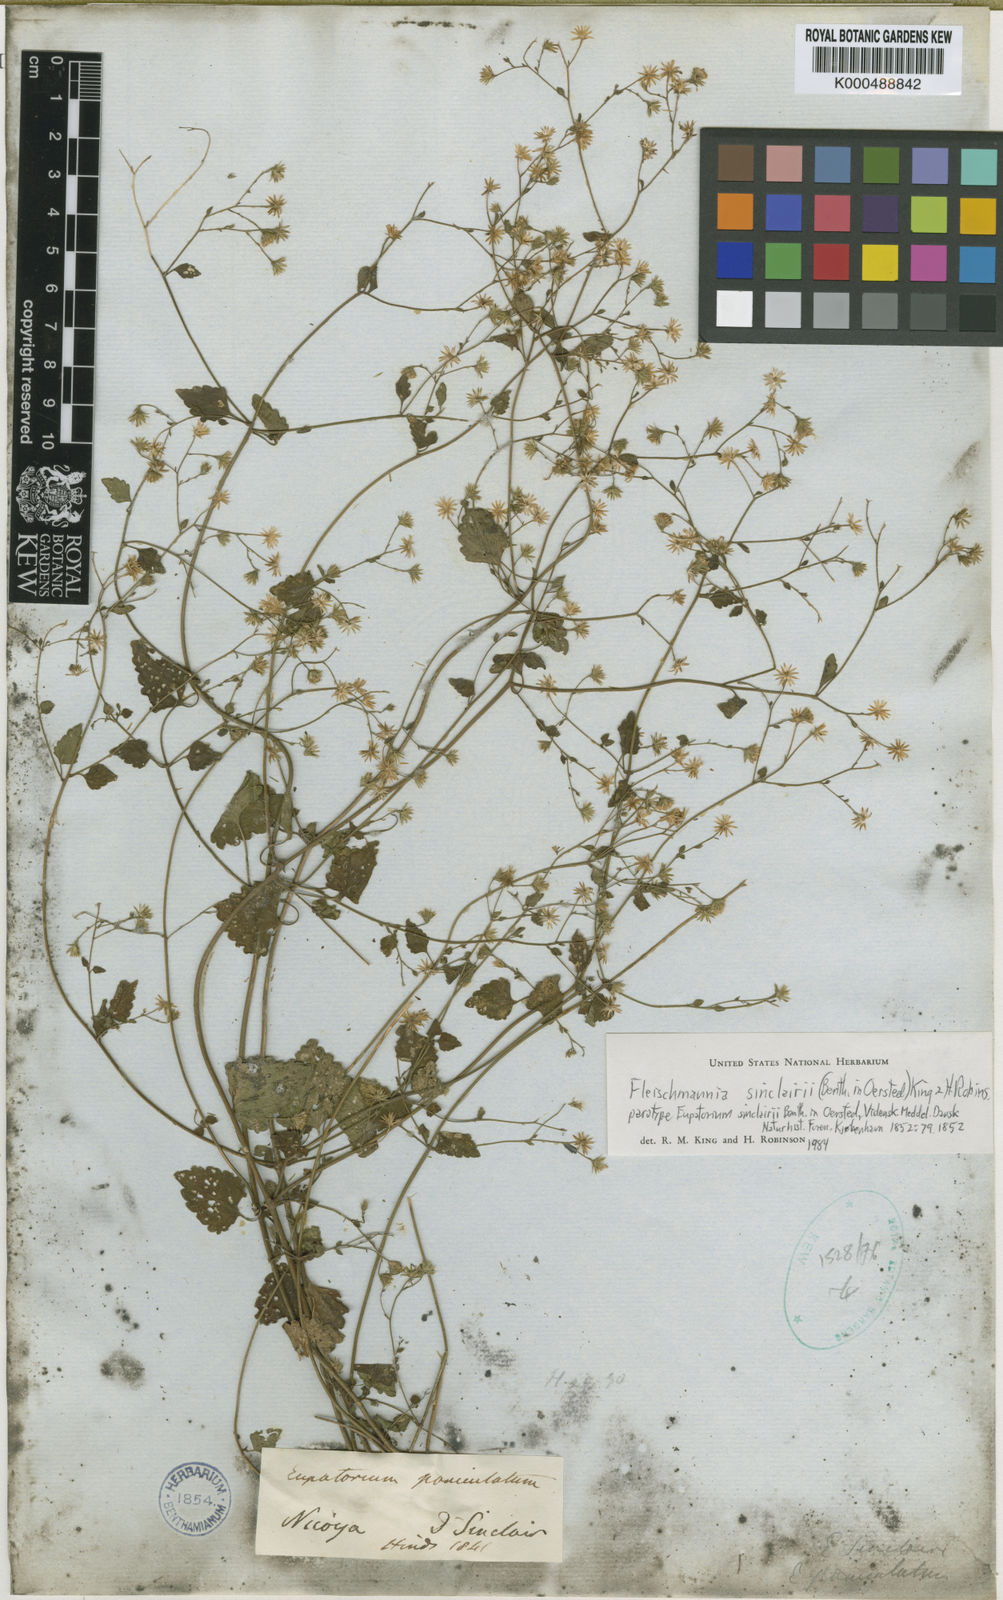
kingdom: Plantae
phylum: Tracheophyta
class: Magnoliopsida
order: Asterales
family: Asteraceae
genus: Fleischmannia
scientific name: Fleischmannia sinclairii
